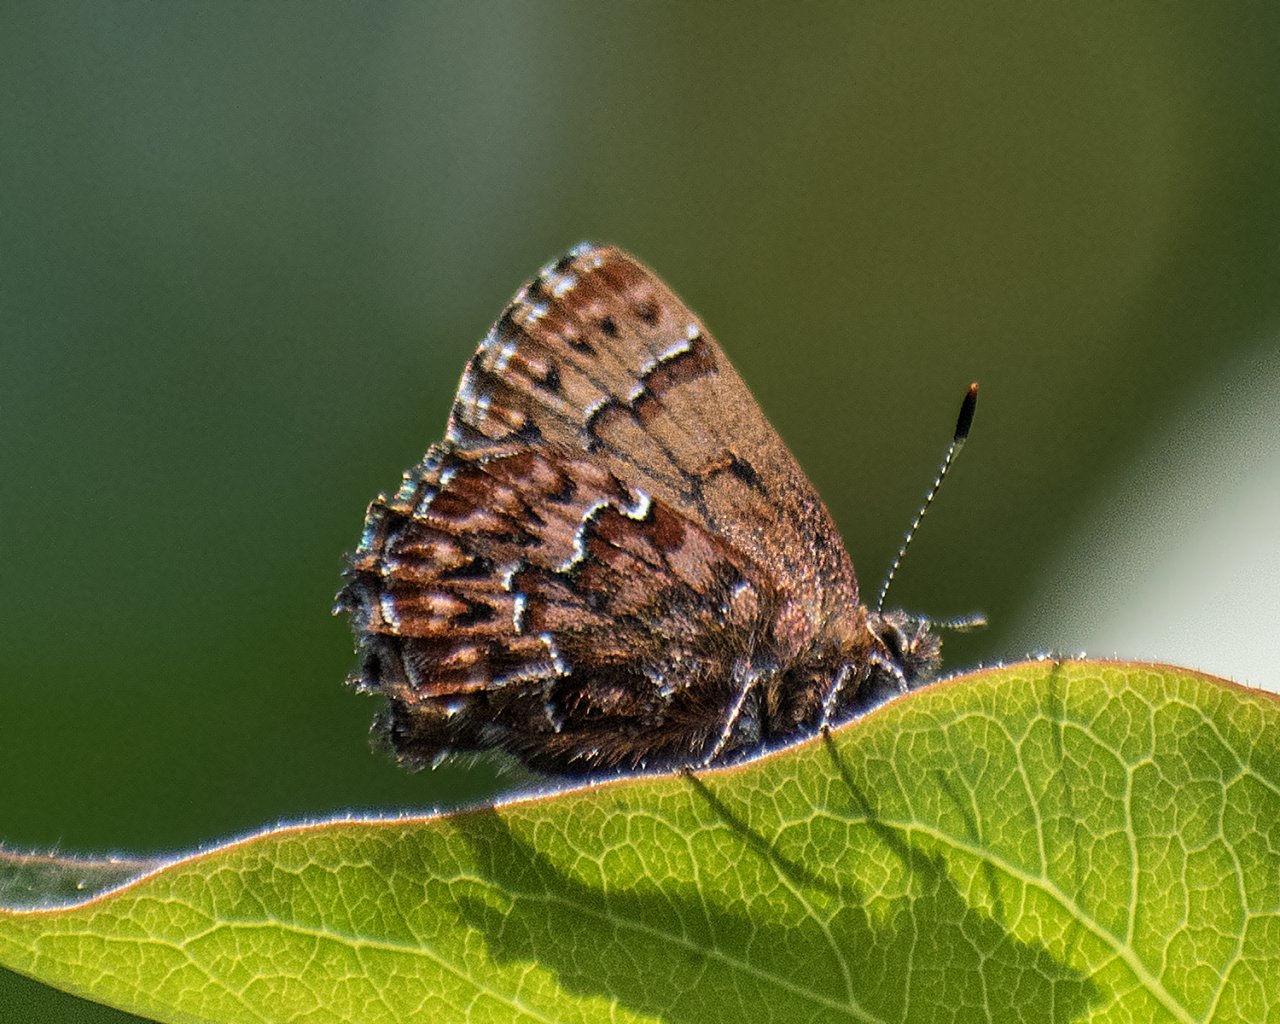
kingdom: Animalia
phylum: Arthropoda
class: Insecta
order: Lepidoptera
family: Lycaenidae
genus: Incisalia
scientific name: Incisalia eryphon
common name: Western Pine Elfin
